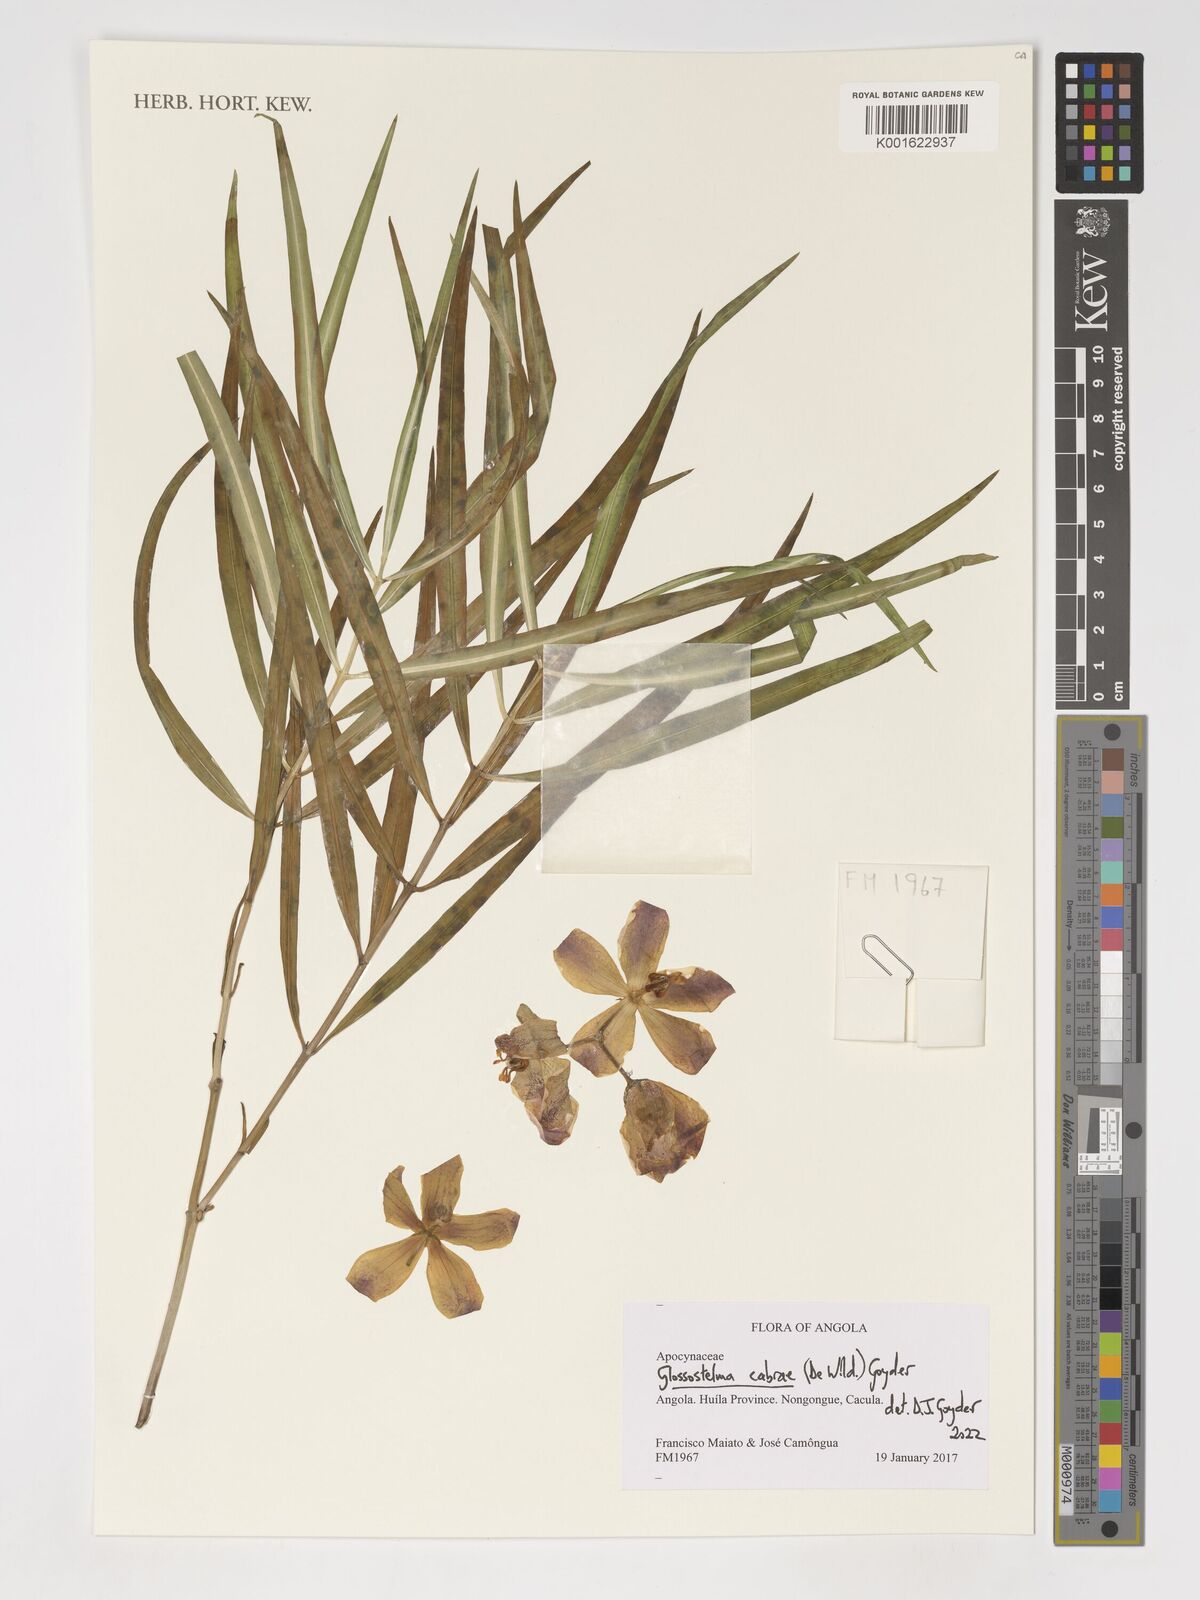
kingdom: Plantae
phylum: Tracheophyta
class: Magnoliopsida
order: Gentianales
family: Apocynaceae
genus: Glossostelma
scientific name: Glossostelma cabrae
